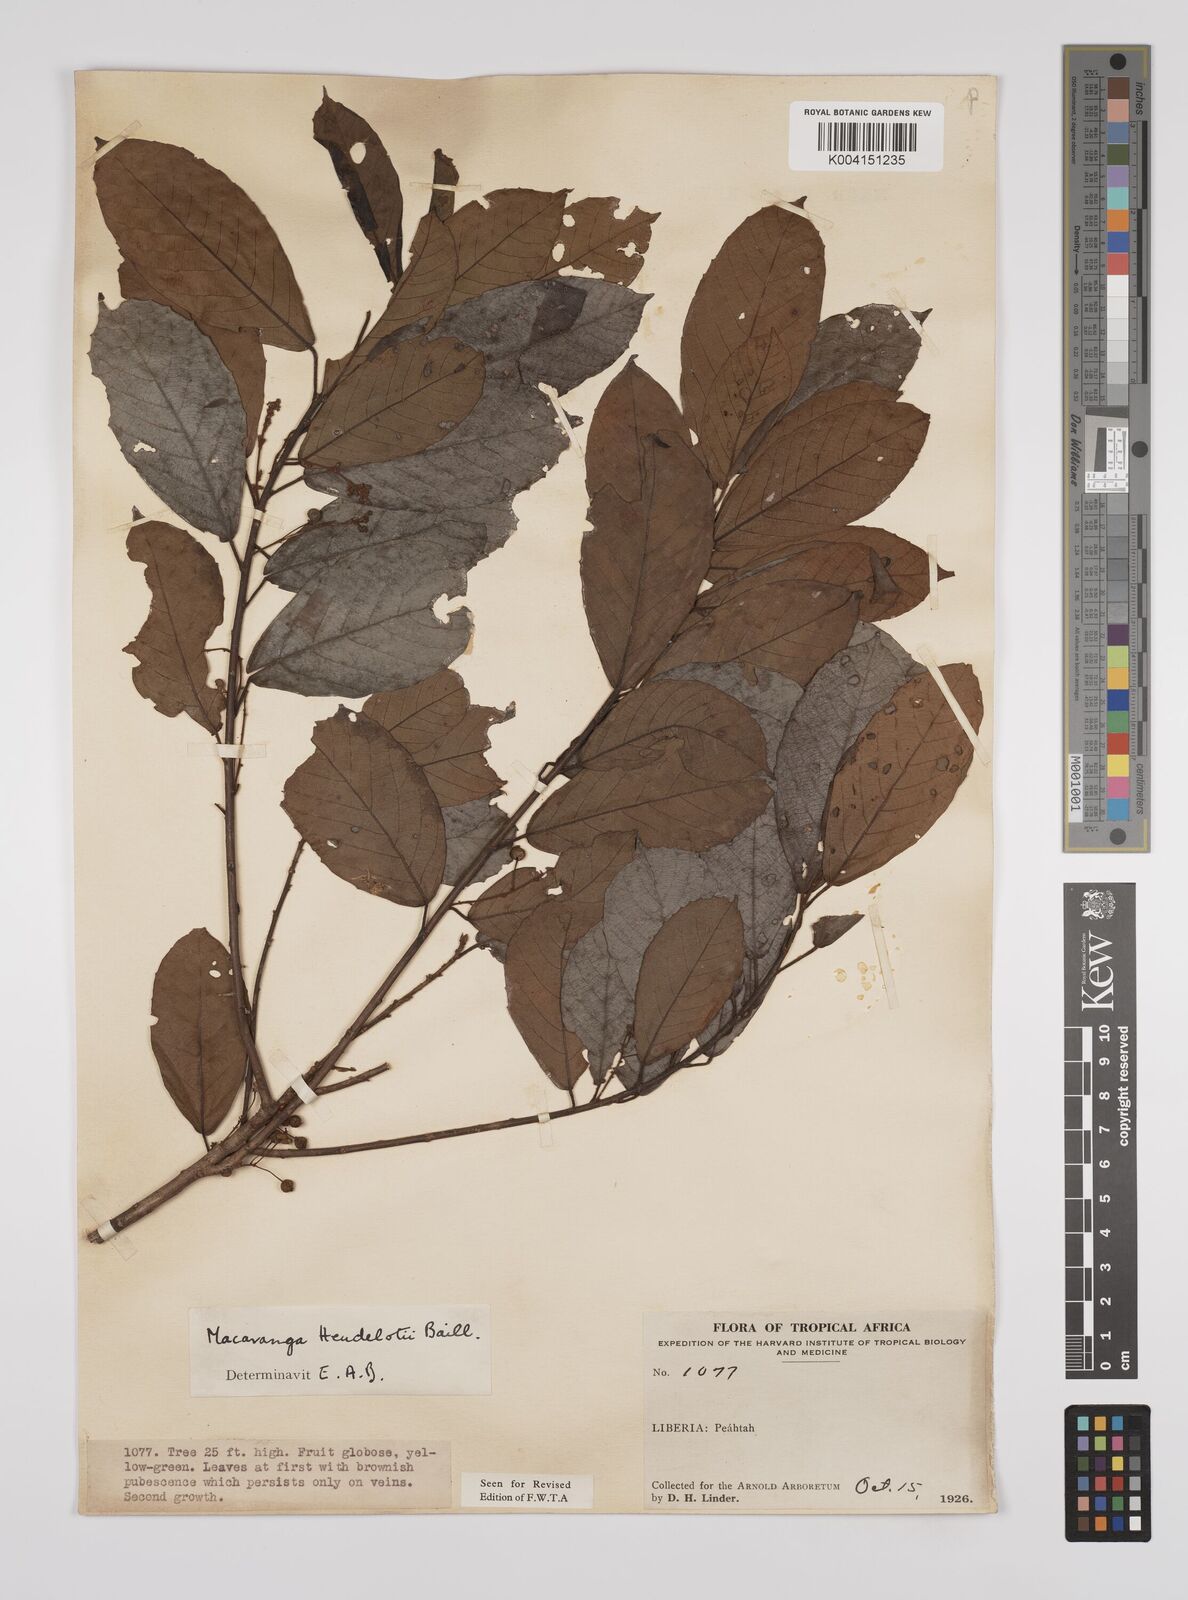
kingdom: Plantae
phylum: Tracheophyta
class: Magnoliopsida
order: Malpighiales
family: Euphorbiaceae
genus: Macaranga
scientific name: Macaranga heudelotii
